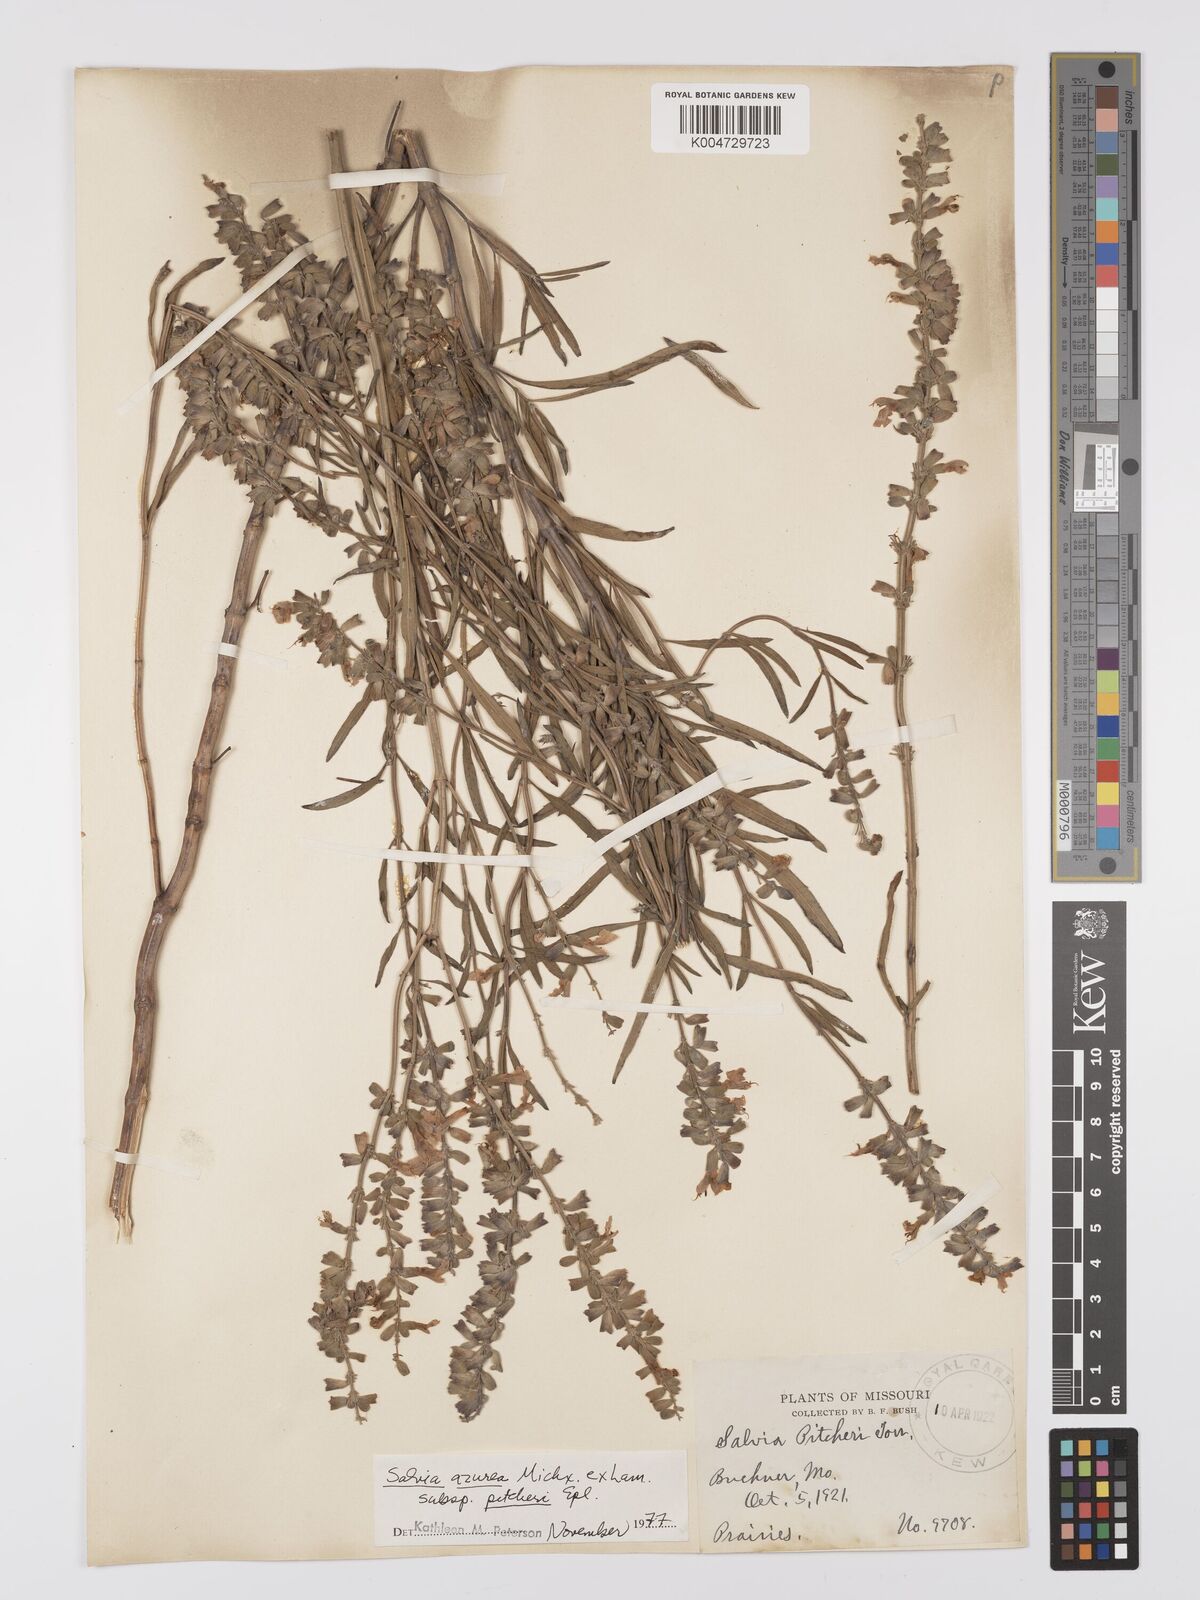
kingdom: Plantae
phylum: Tracheophyta
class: Magnoliopsida
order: Lamiales
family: Lamiaceae
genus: Salvia
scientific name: Salvia azurea
